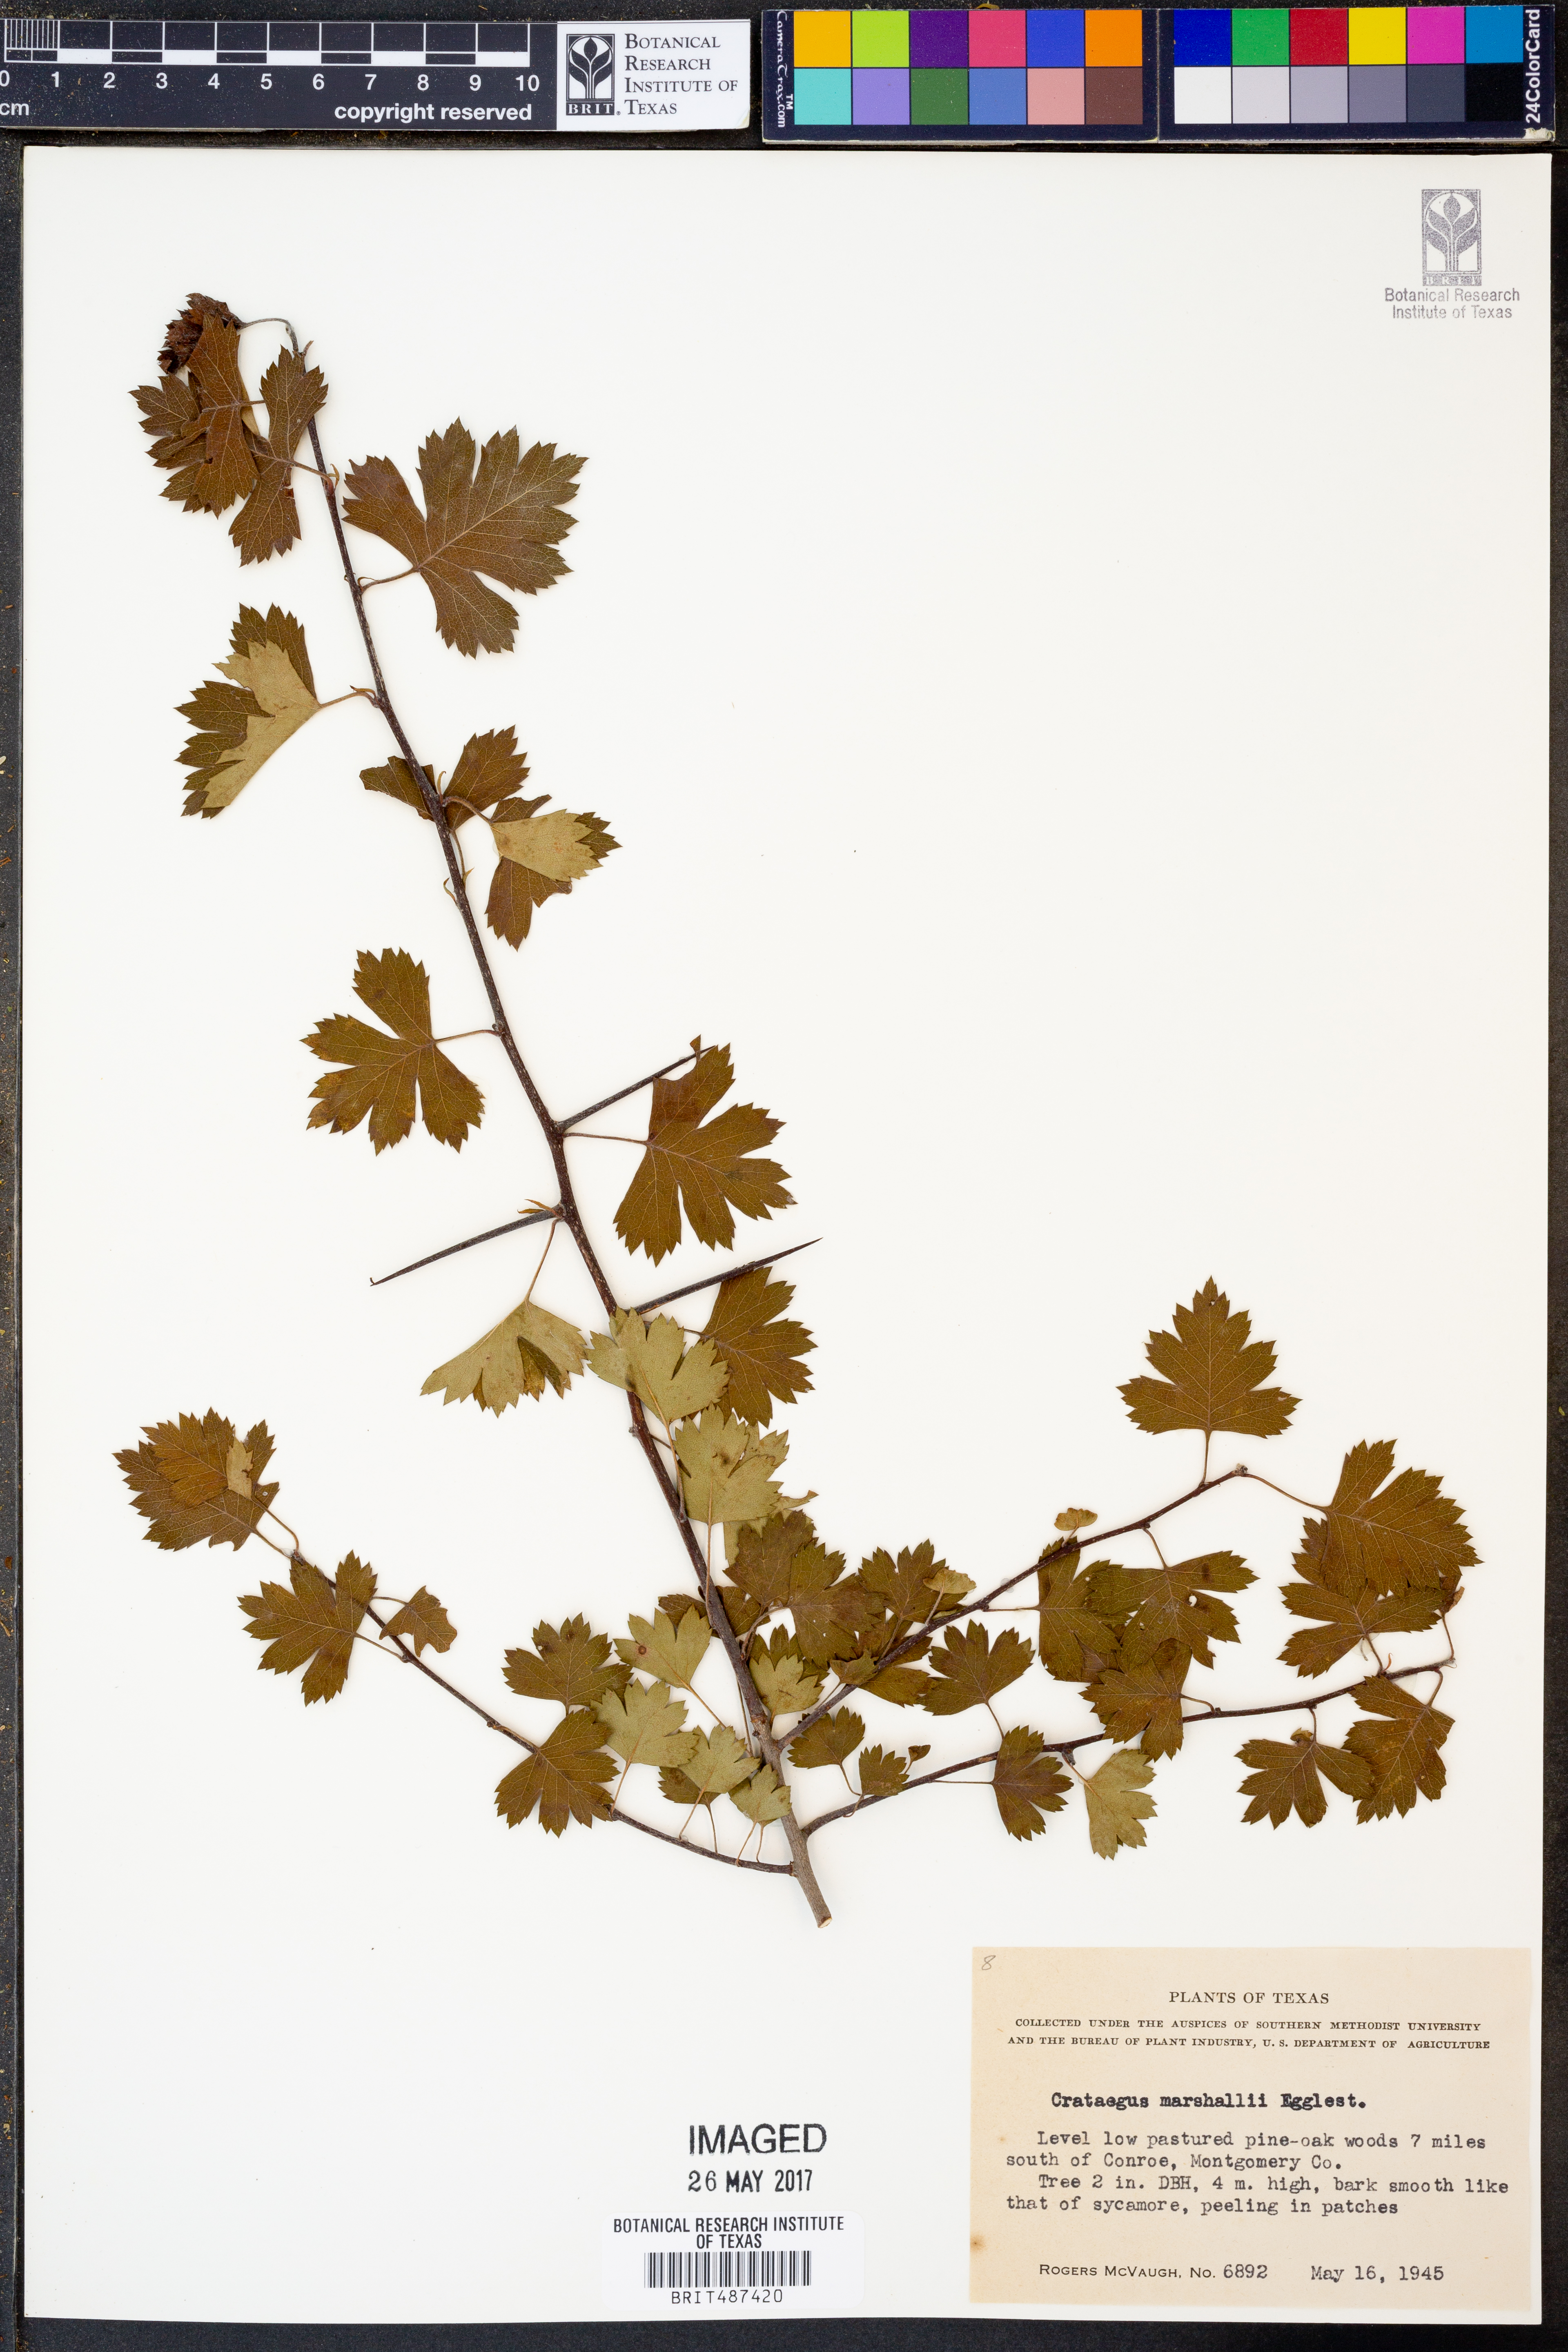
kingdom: Plantae
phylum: Tracheophyta
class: Magnoliopsida
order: Rosales
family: Rosaceae
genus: Crataegus
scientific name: Crataegus marshallii
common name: Parsley-hawthorn
